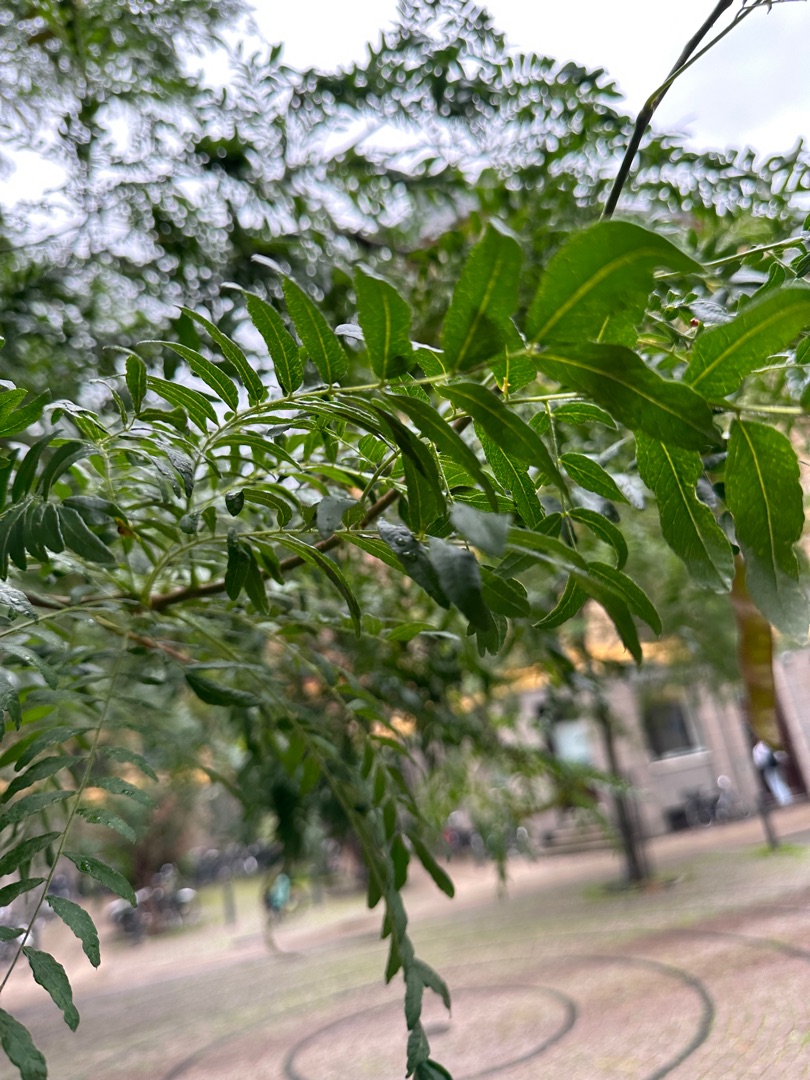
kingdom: Plantae
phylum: Tracheophyta
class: Magnoliopsida
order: Lamiales
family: Oleaceae
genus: Fraxinus
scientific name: Fraxinus excelsior
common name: Ask
